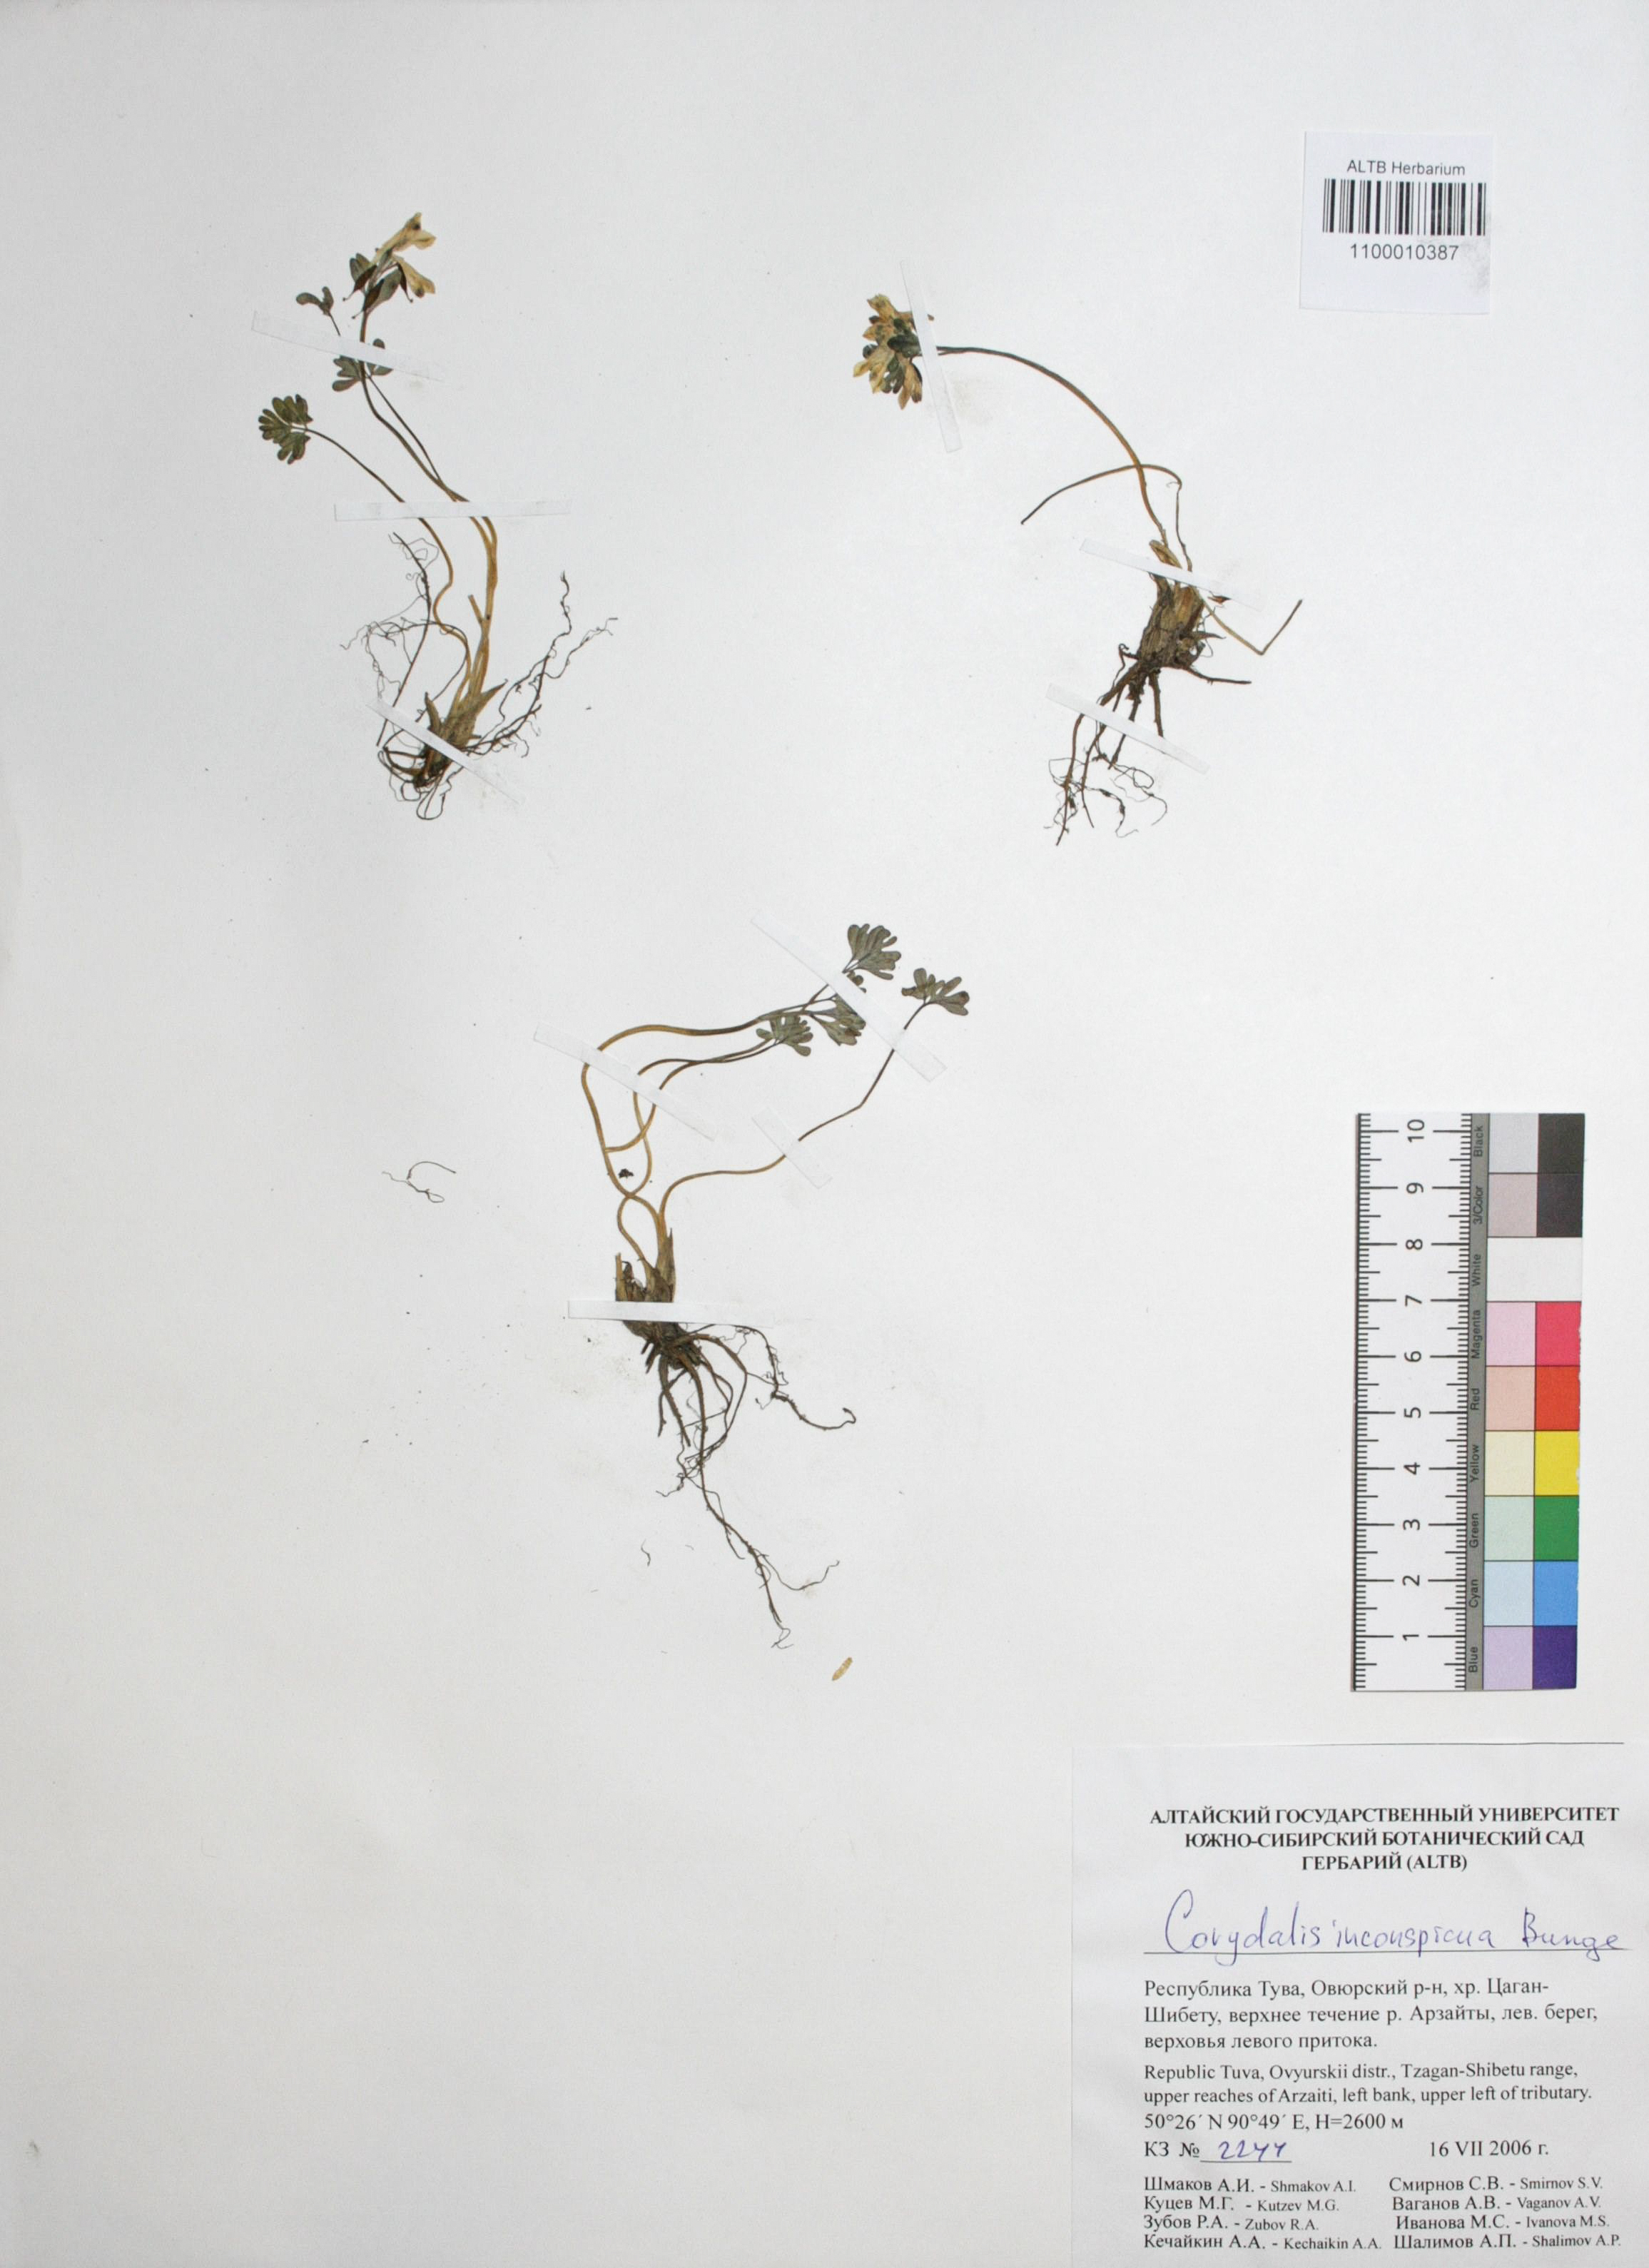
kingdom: Plantae
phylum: Tracheophyta
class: Magnoliopsida
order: Ranunculales
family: Papaveraceae
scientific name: Papaveraceae
